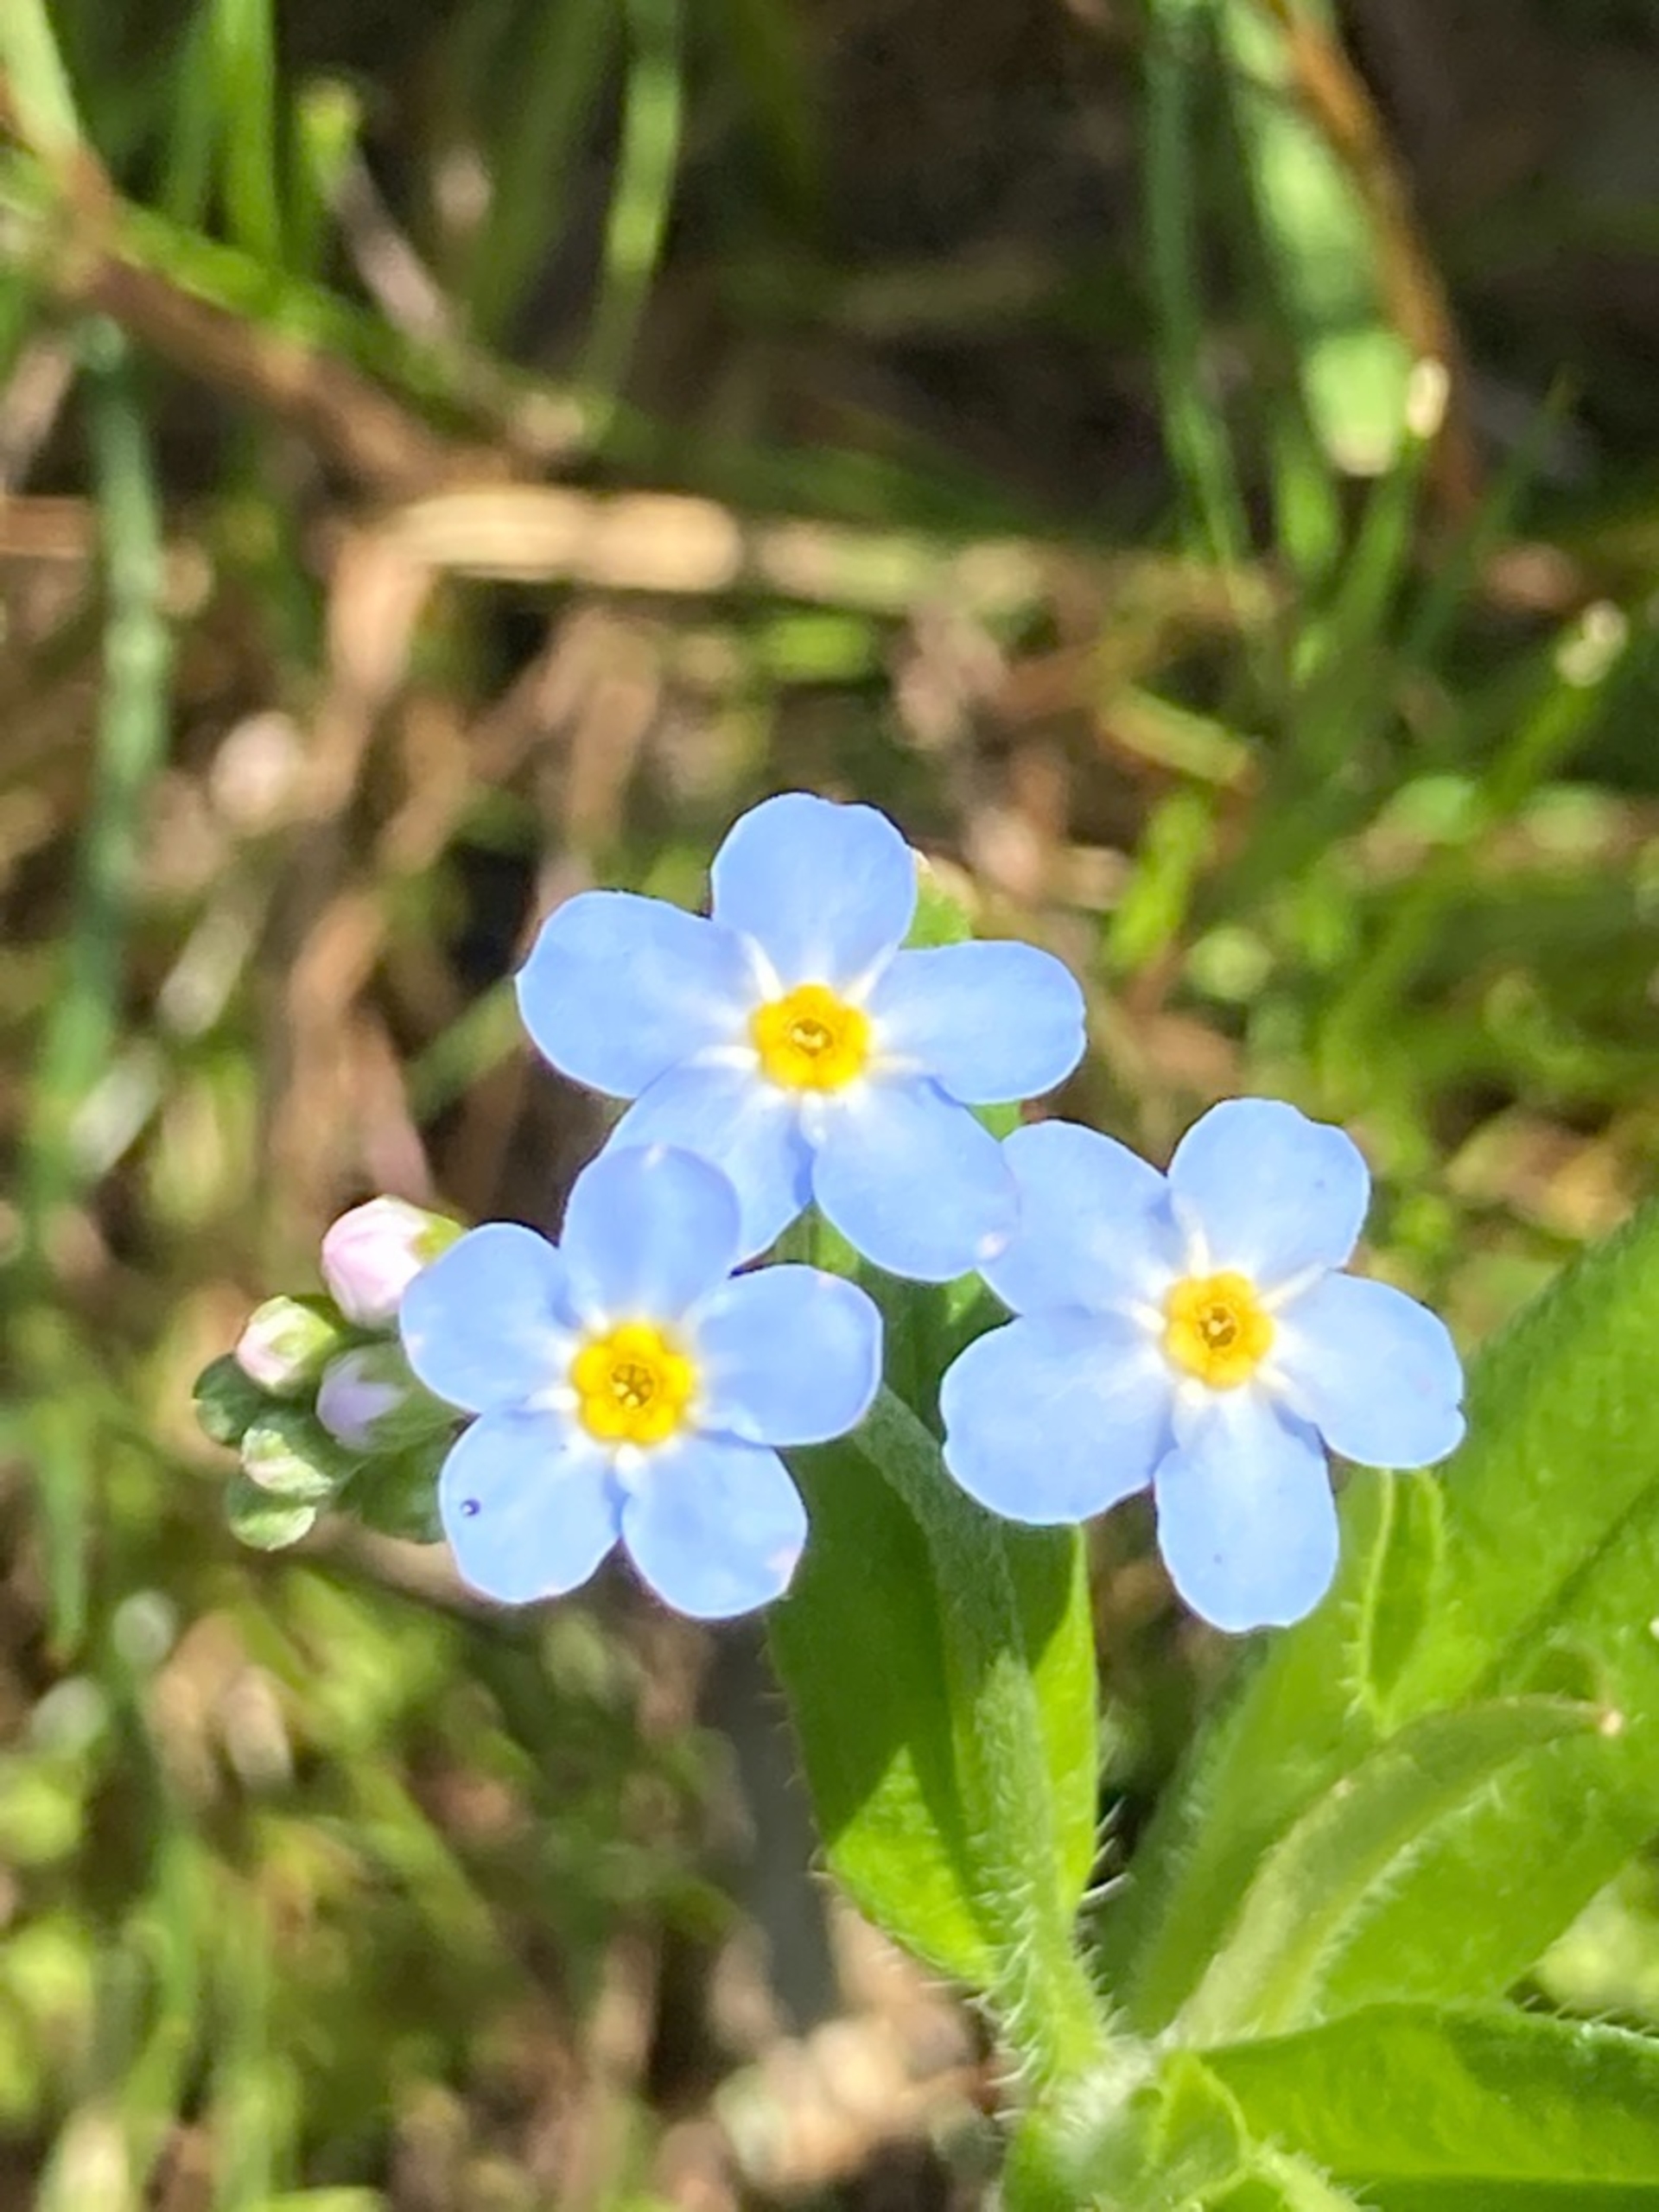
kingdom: Plantae
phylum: Tracheophyta
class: Magnoliopsida
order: Boraginales
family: Boraginaceae
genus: Myosotis
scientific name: Myosotis scorpioides
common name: Eng-forglemmigej
